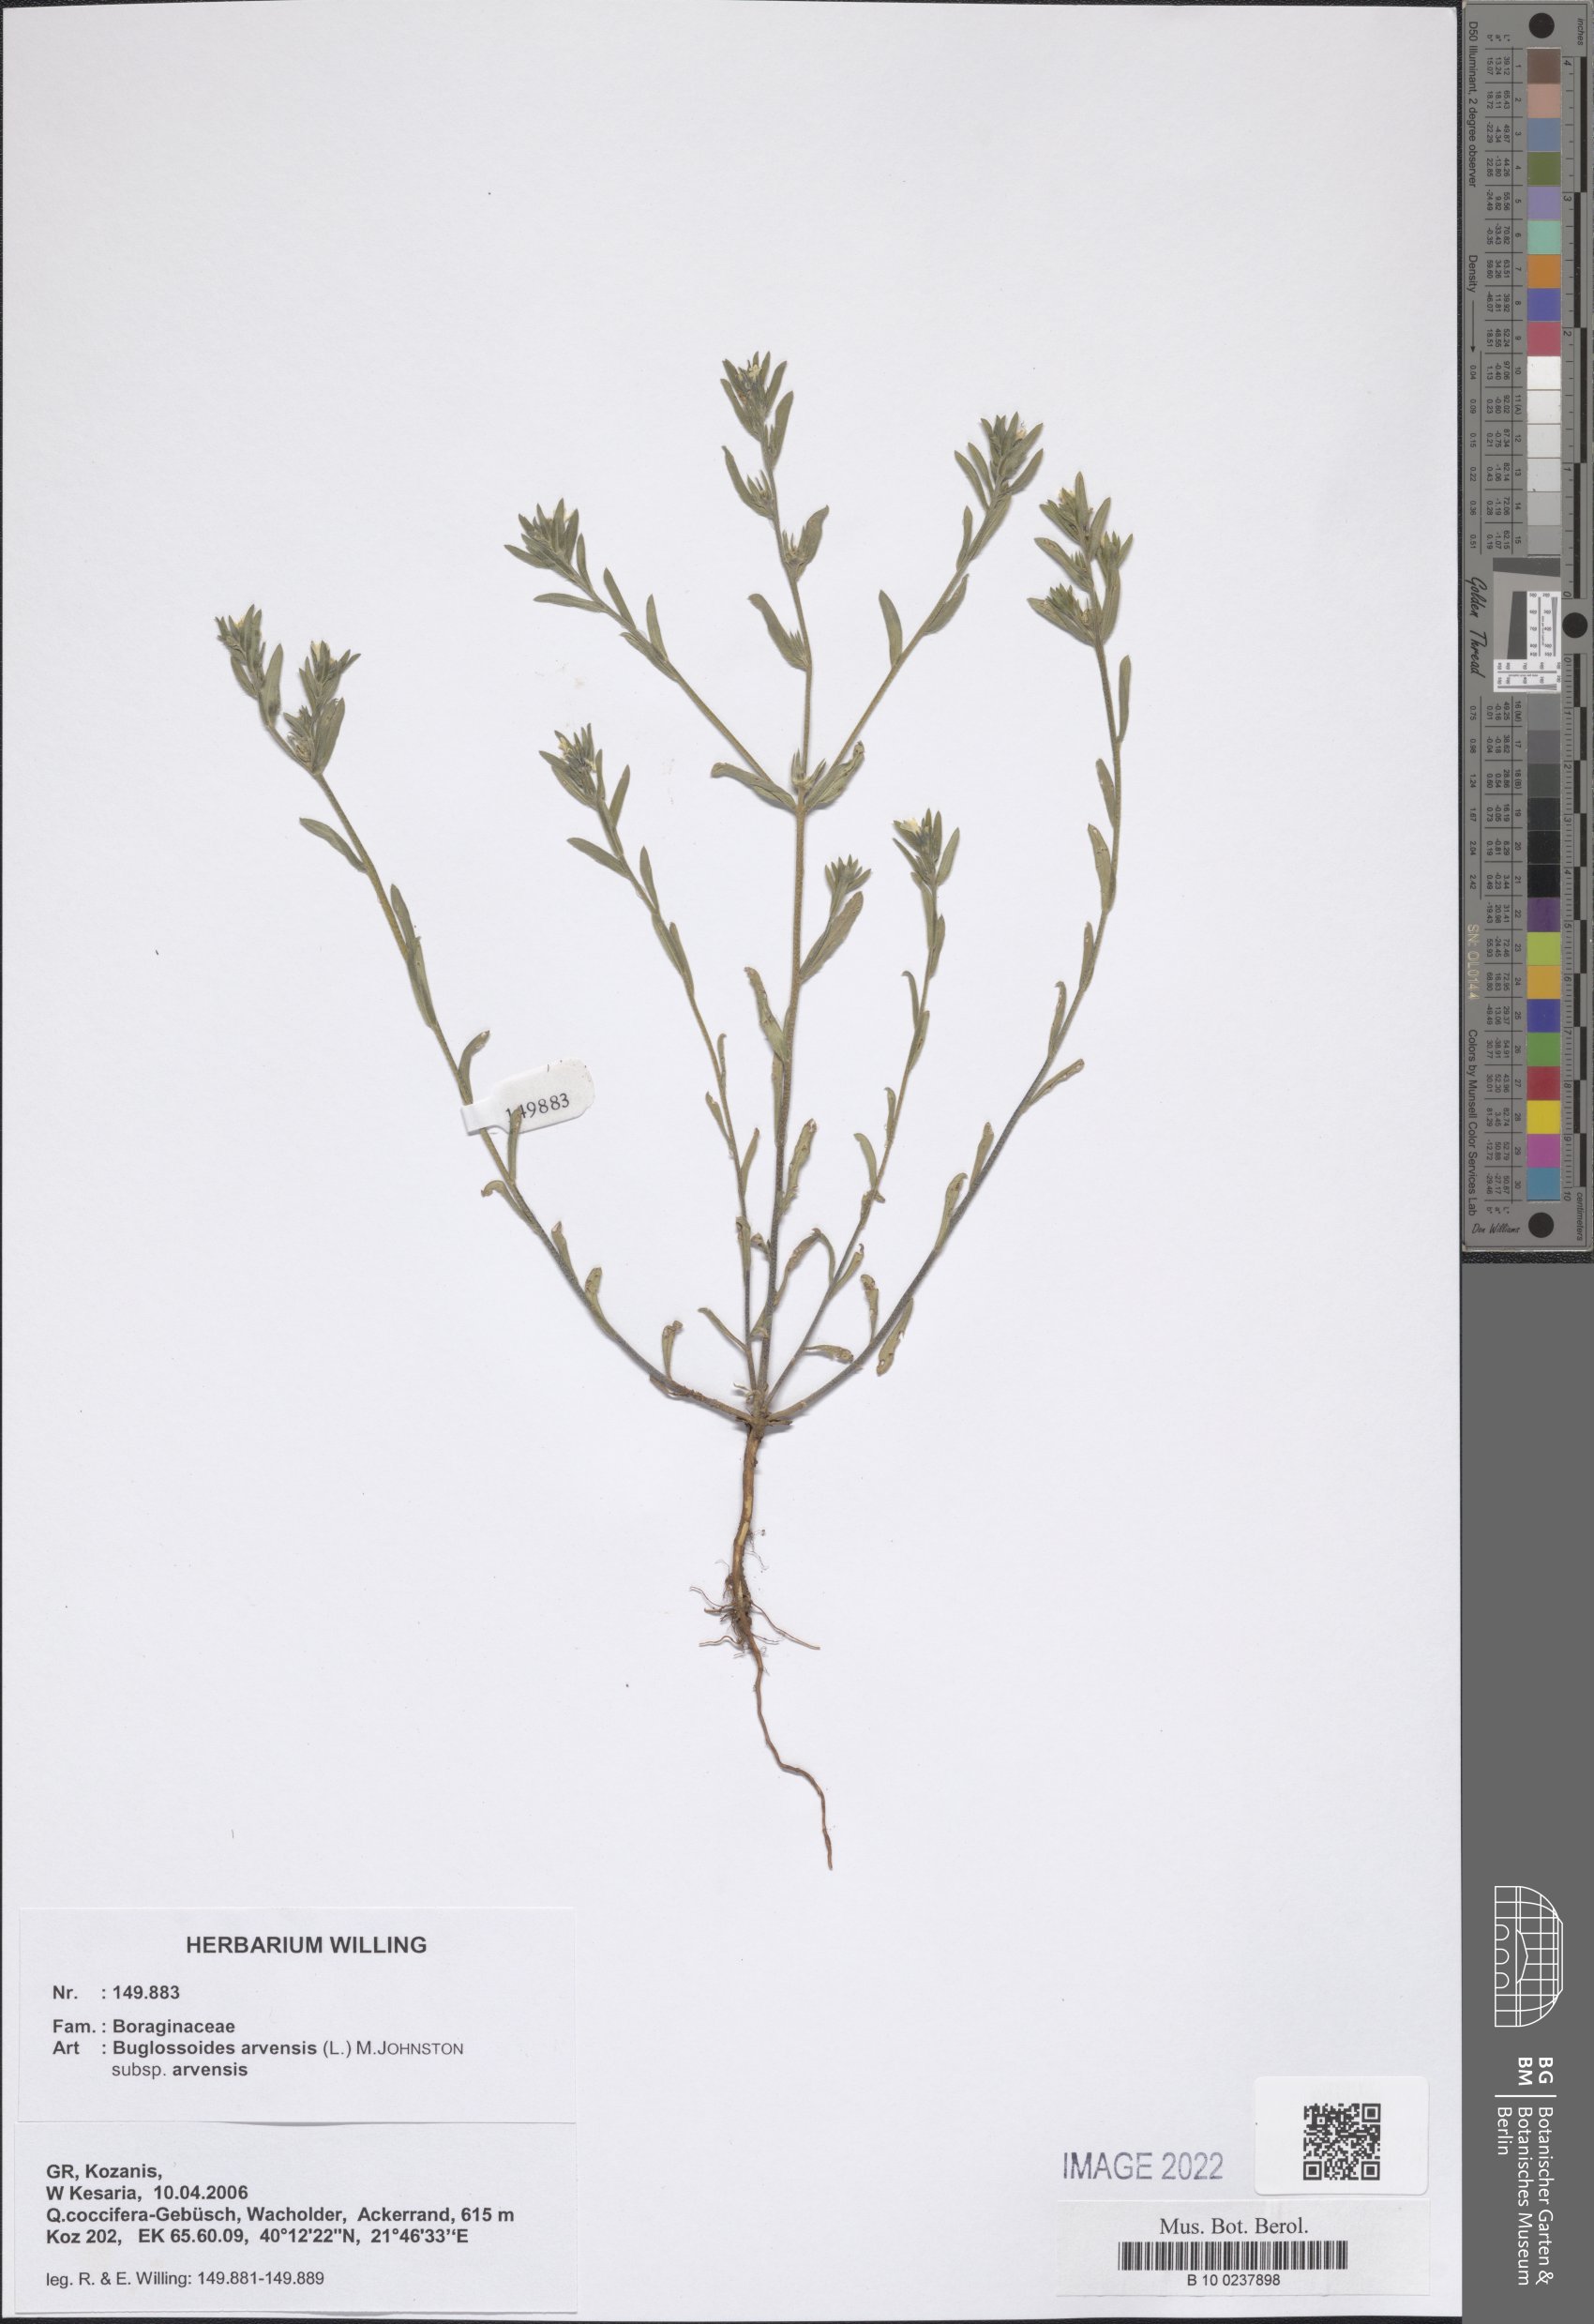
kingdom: Plantae
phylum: Tracheophyta
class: Magnoliopsida
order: Boraginales
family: Boraginaceae
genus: Buglossoides
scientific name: Buglossoides arvensis
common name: Corn gromwell
